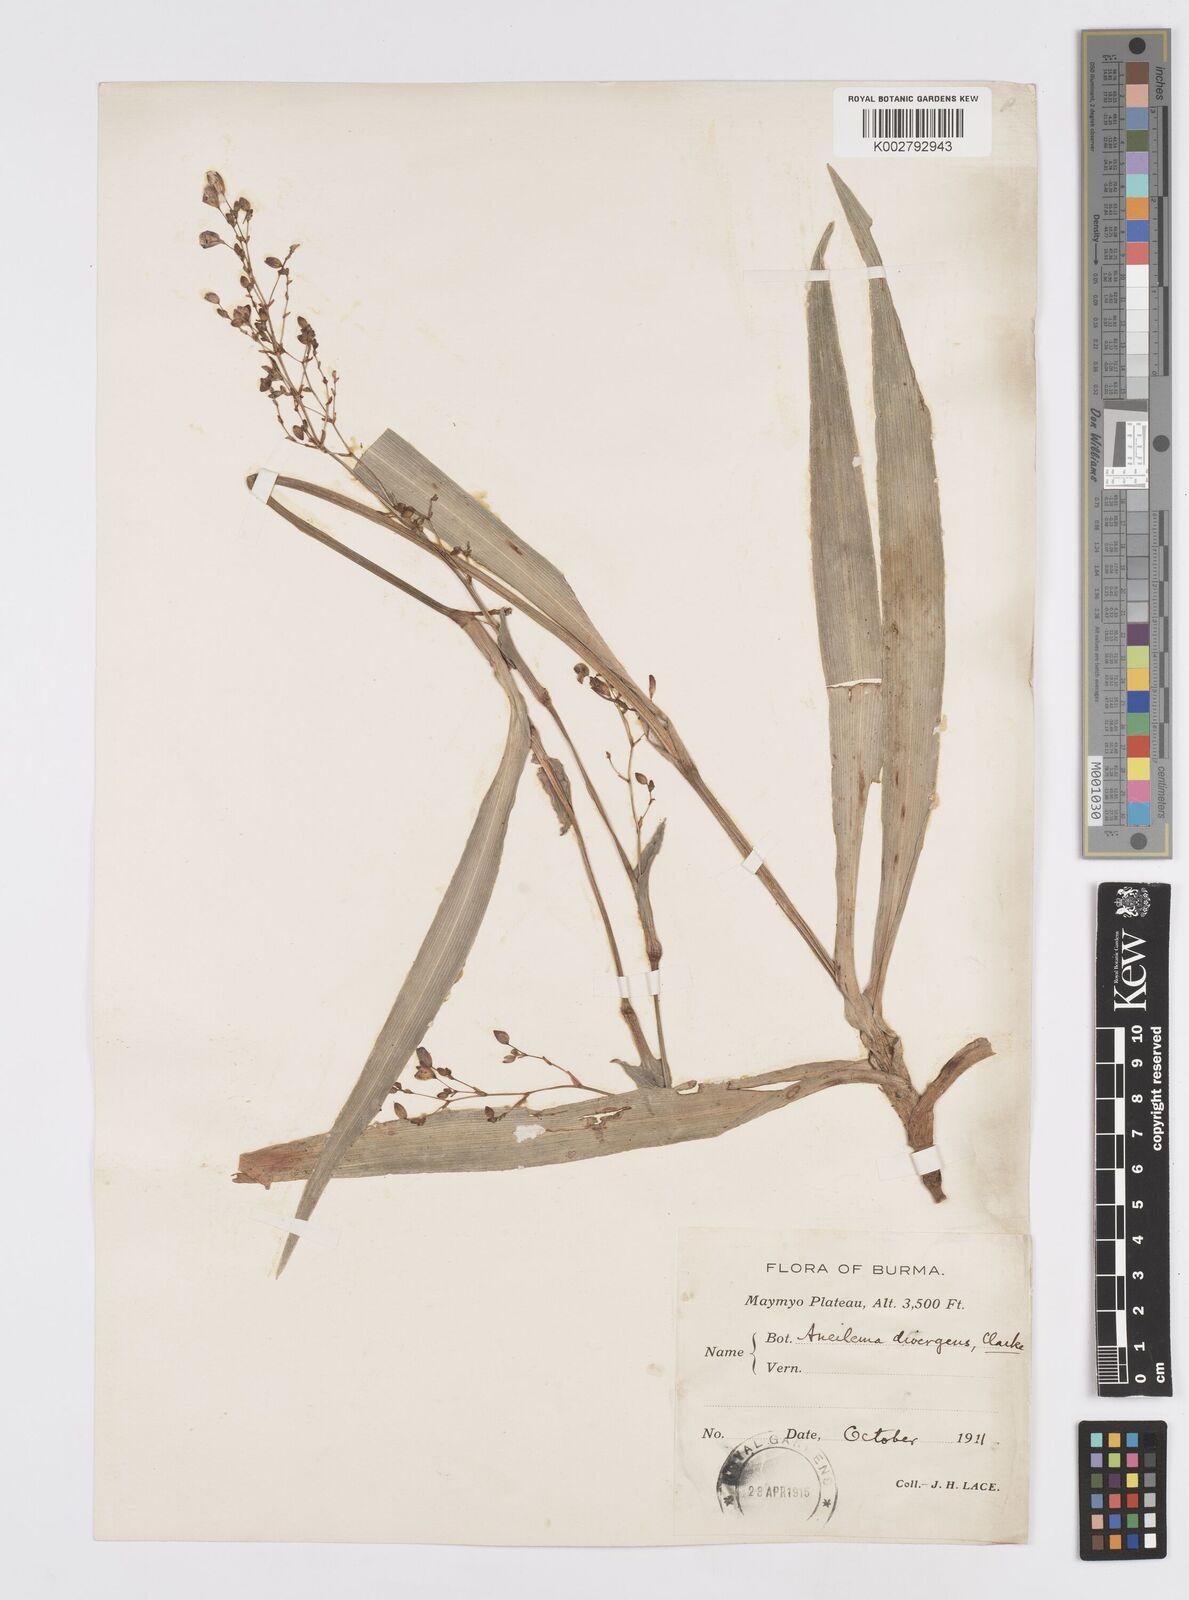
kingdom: Plantae
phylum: Tracheophyta
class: Liliopsida
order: Commelinales
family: Commelinaceae
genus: Murdannia
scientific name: Murdannia divergens
